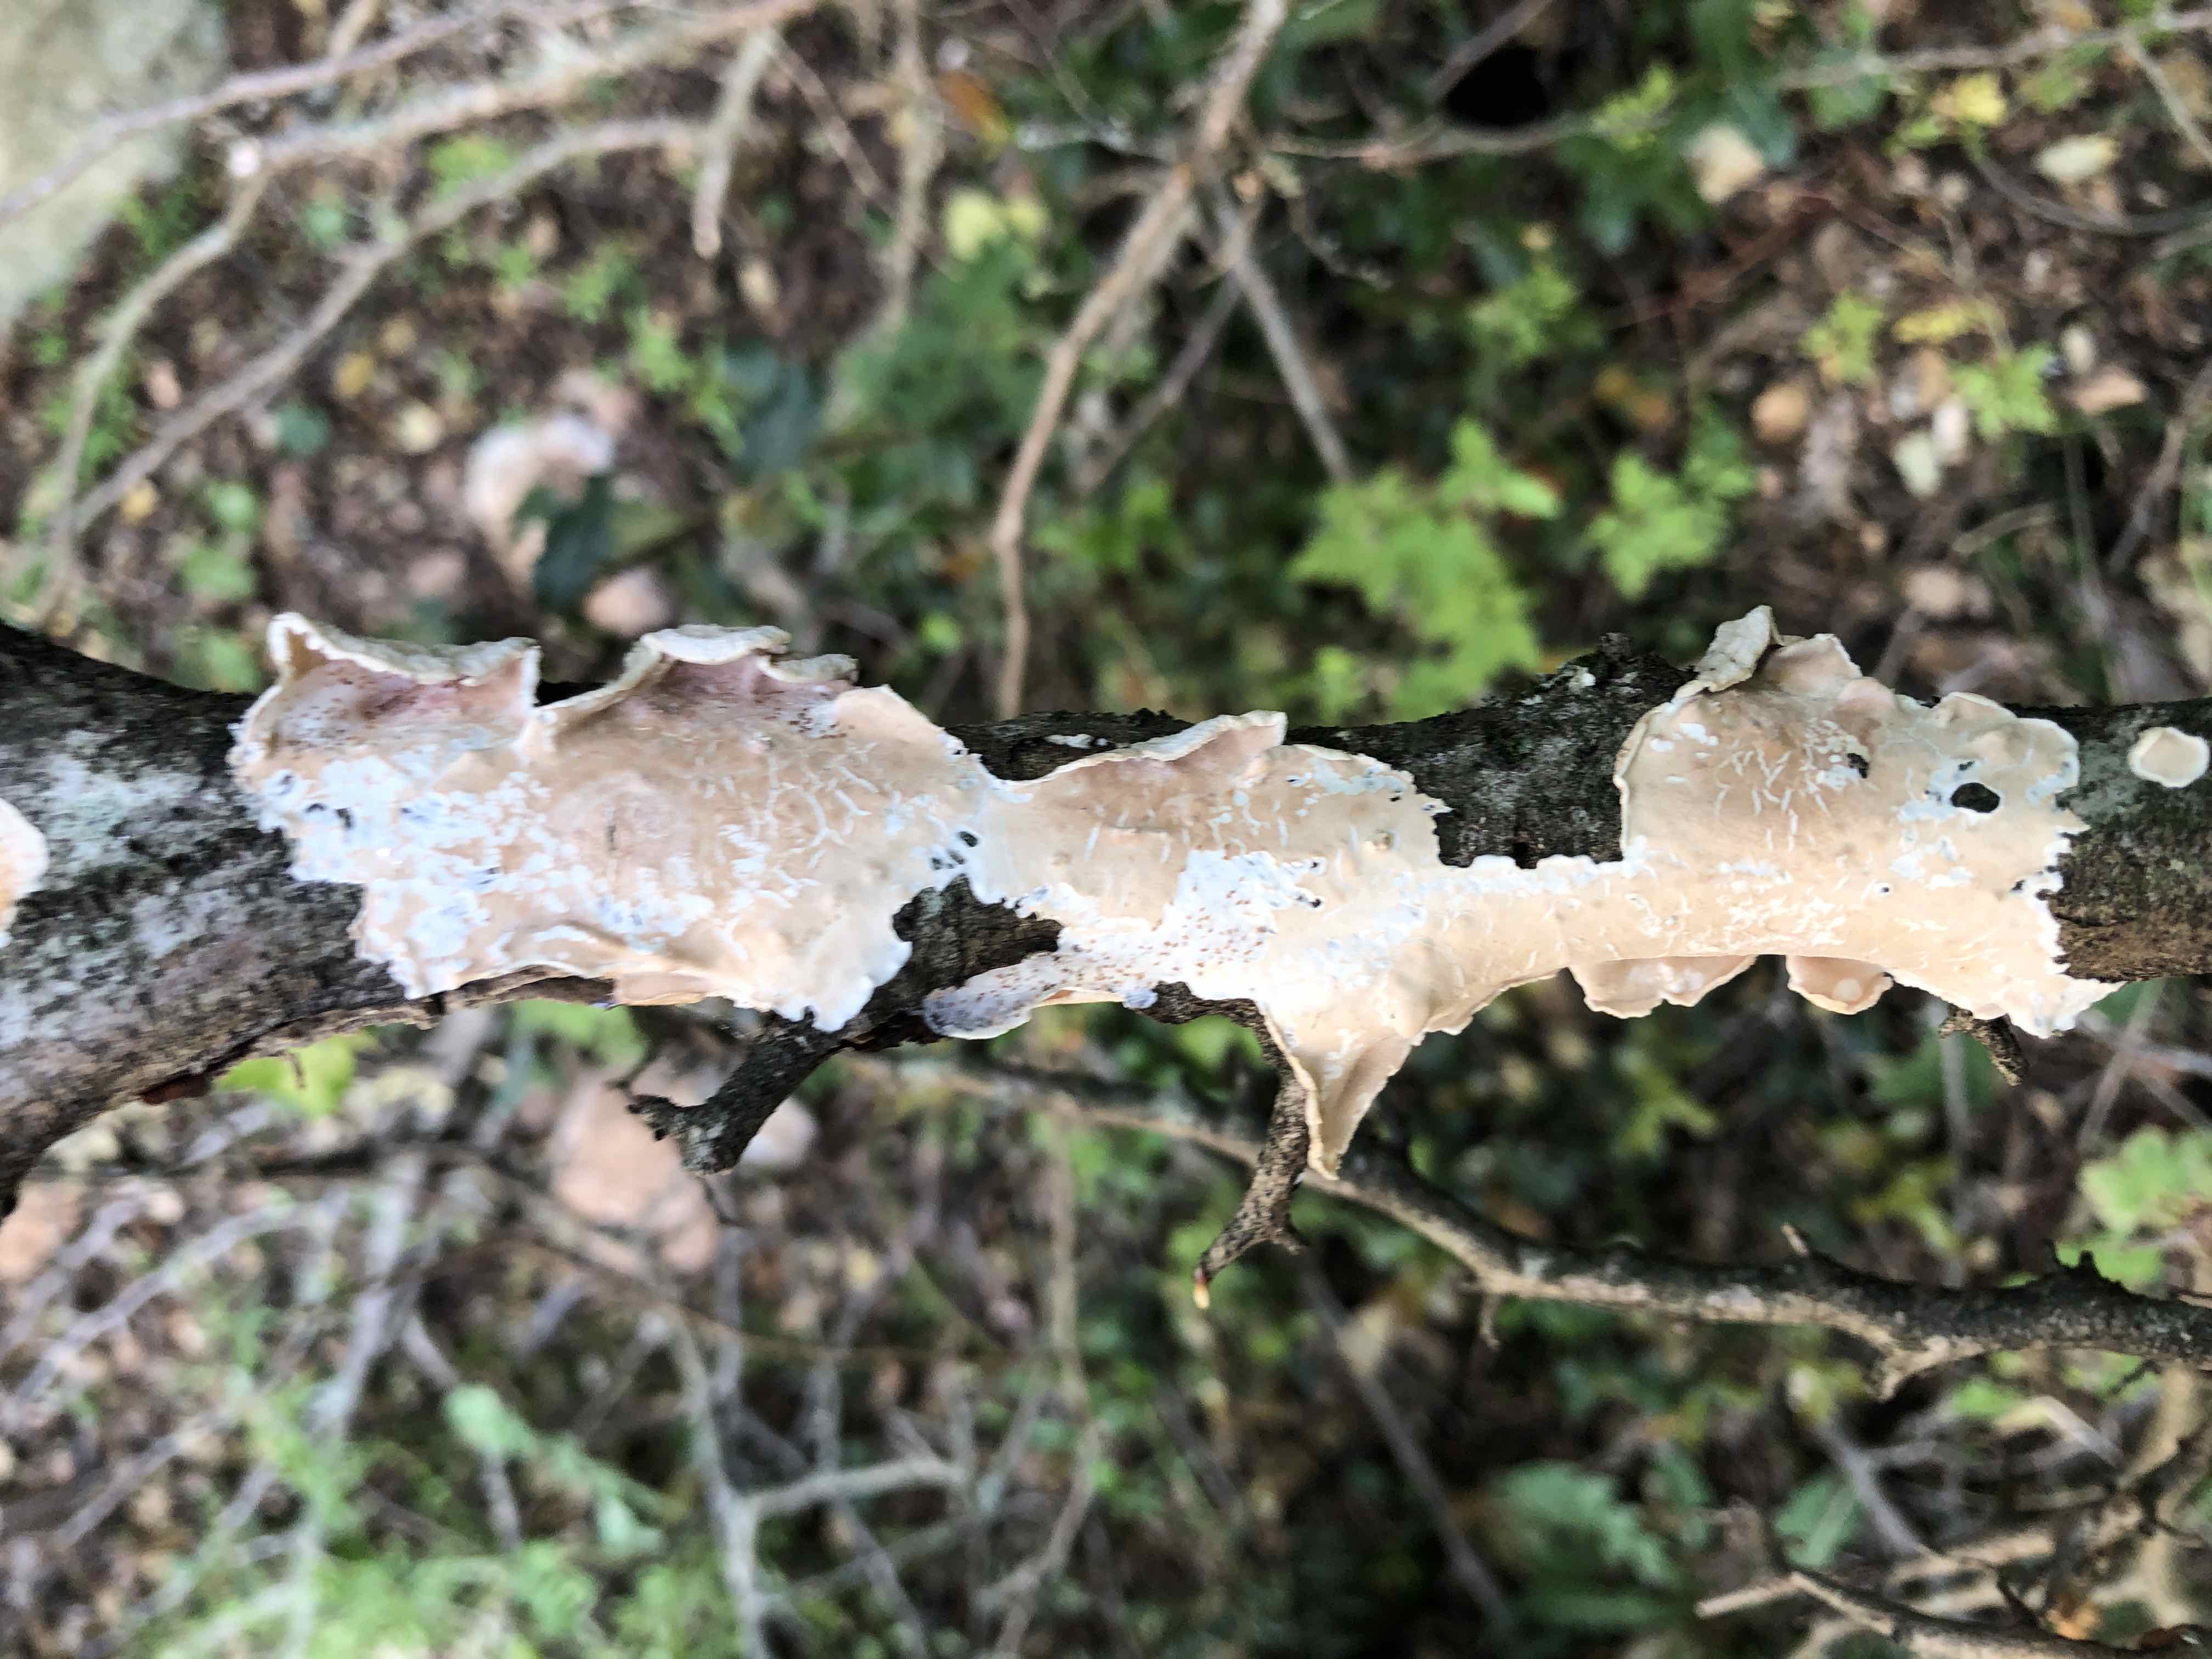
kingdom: Fungi
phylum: Basidiomycota
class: Agaricomycetes
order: Polyporales
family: Irpicaceae
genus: Byssomerulius
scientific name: Byssomerulius corium
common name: læder-åresvamp
